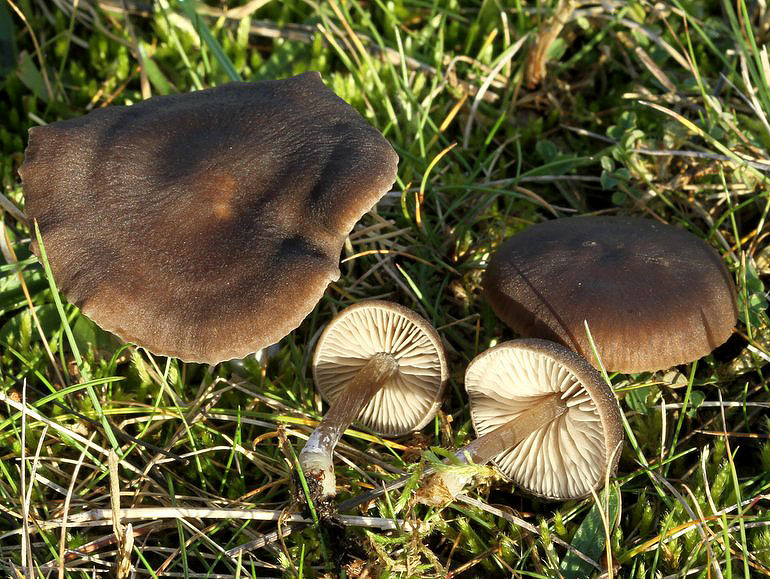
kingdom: Fungi
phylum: Basidiomycota
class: Agaricomycetes
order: Agaricales
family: Entolomataceae
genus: Entoloma
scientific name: Entoloma sericeum
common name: silkeglinsende rødblad
